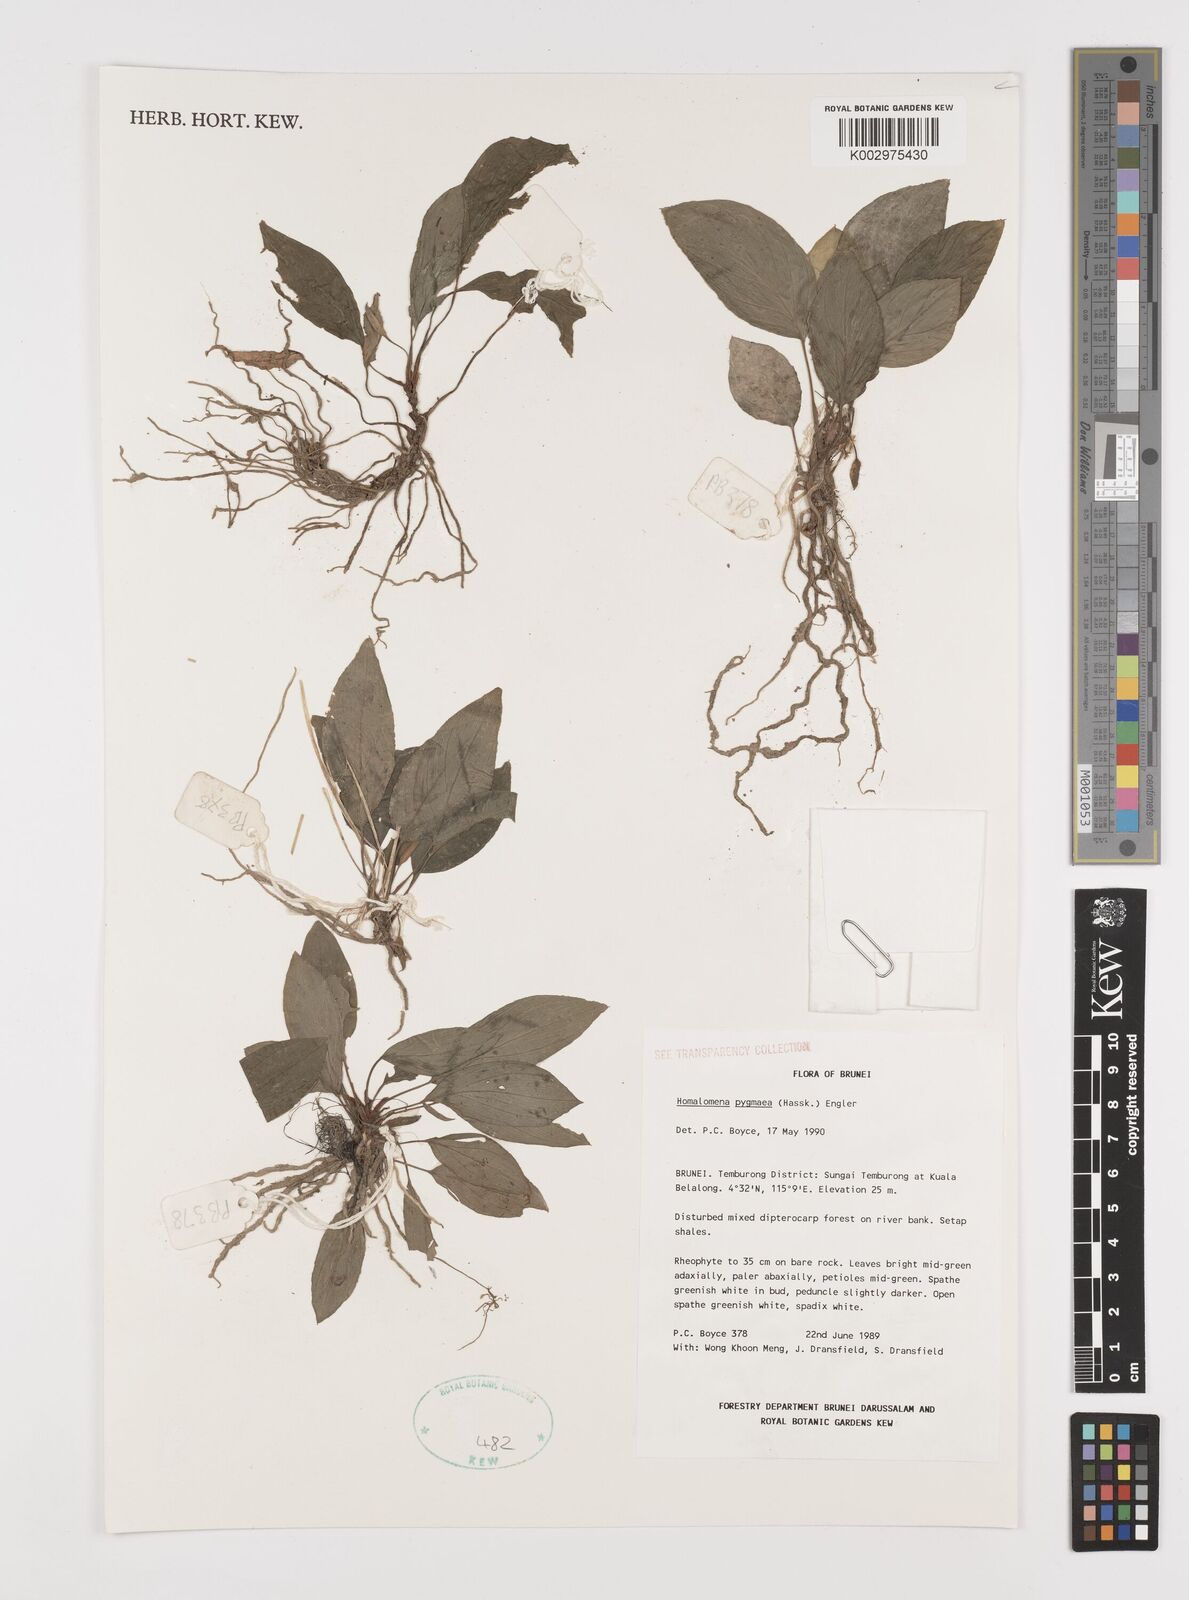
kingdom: Plantae
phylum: Tracheophyta
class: Liliopsida
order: Alismatales
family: Araceae
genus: Homalomena
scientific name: Homalomena humilis
